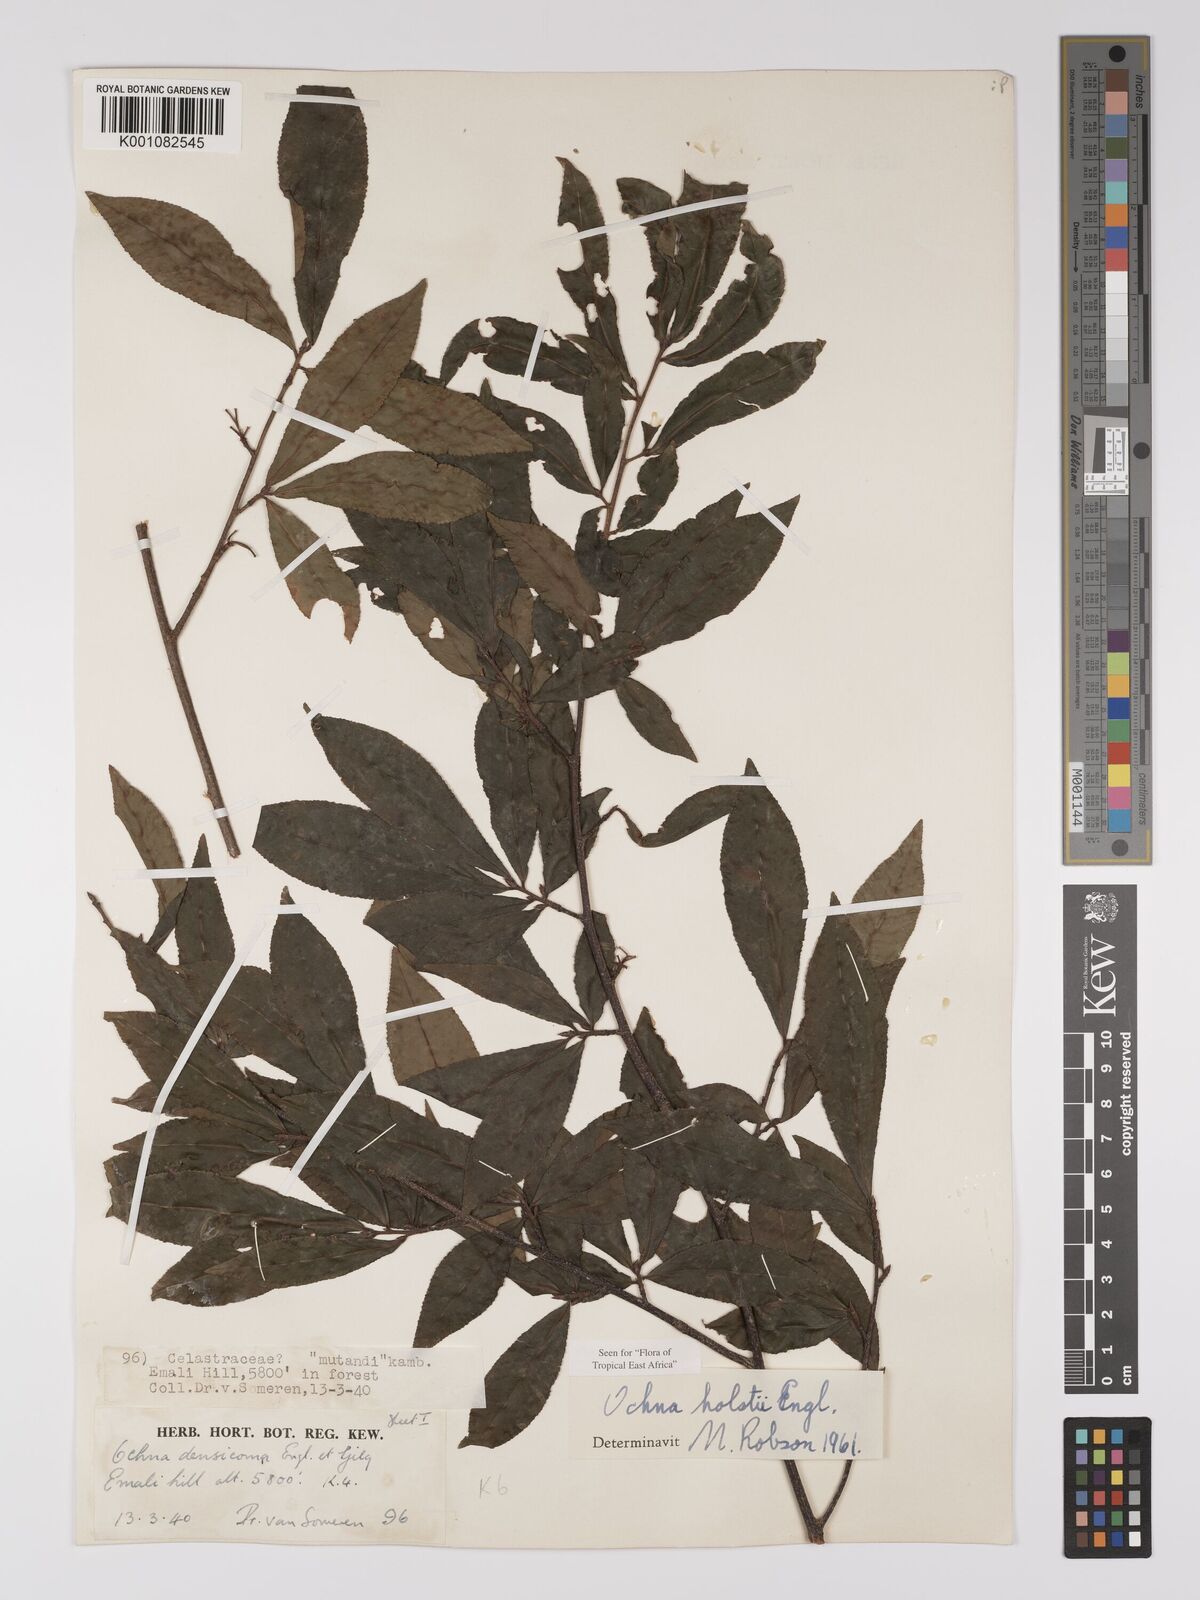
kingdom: Plantae
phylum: Tracheophyta
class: Magnoliopsida
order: Malpighiales
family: Ochnaceae
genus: Ochna
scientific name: Ochna holstii
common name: Red ironwood
